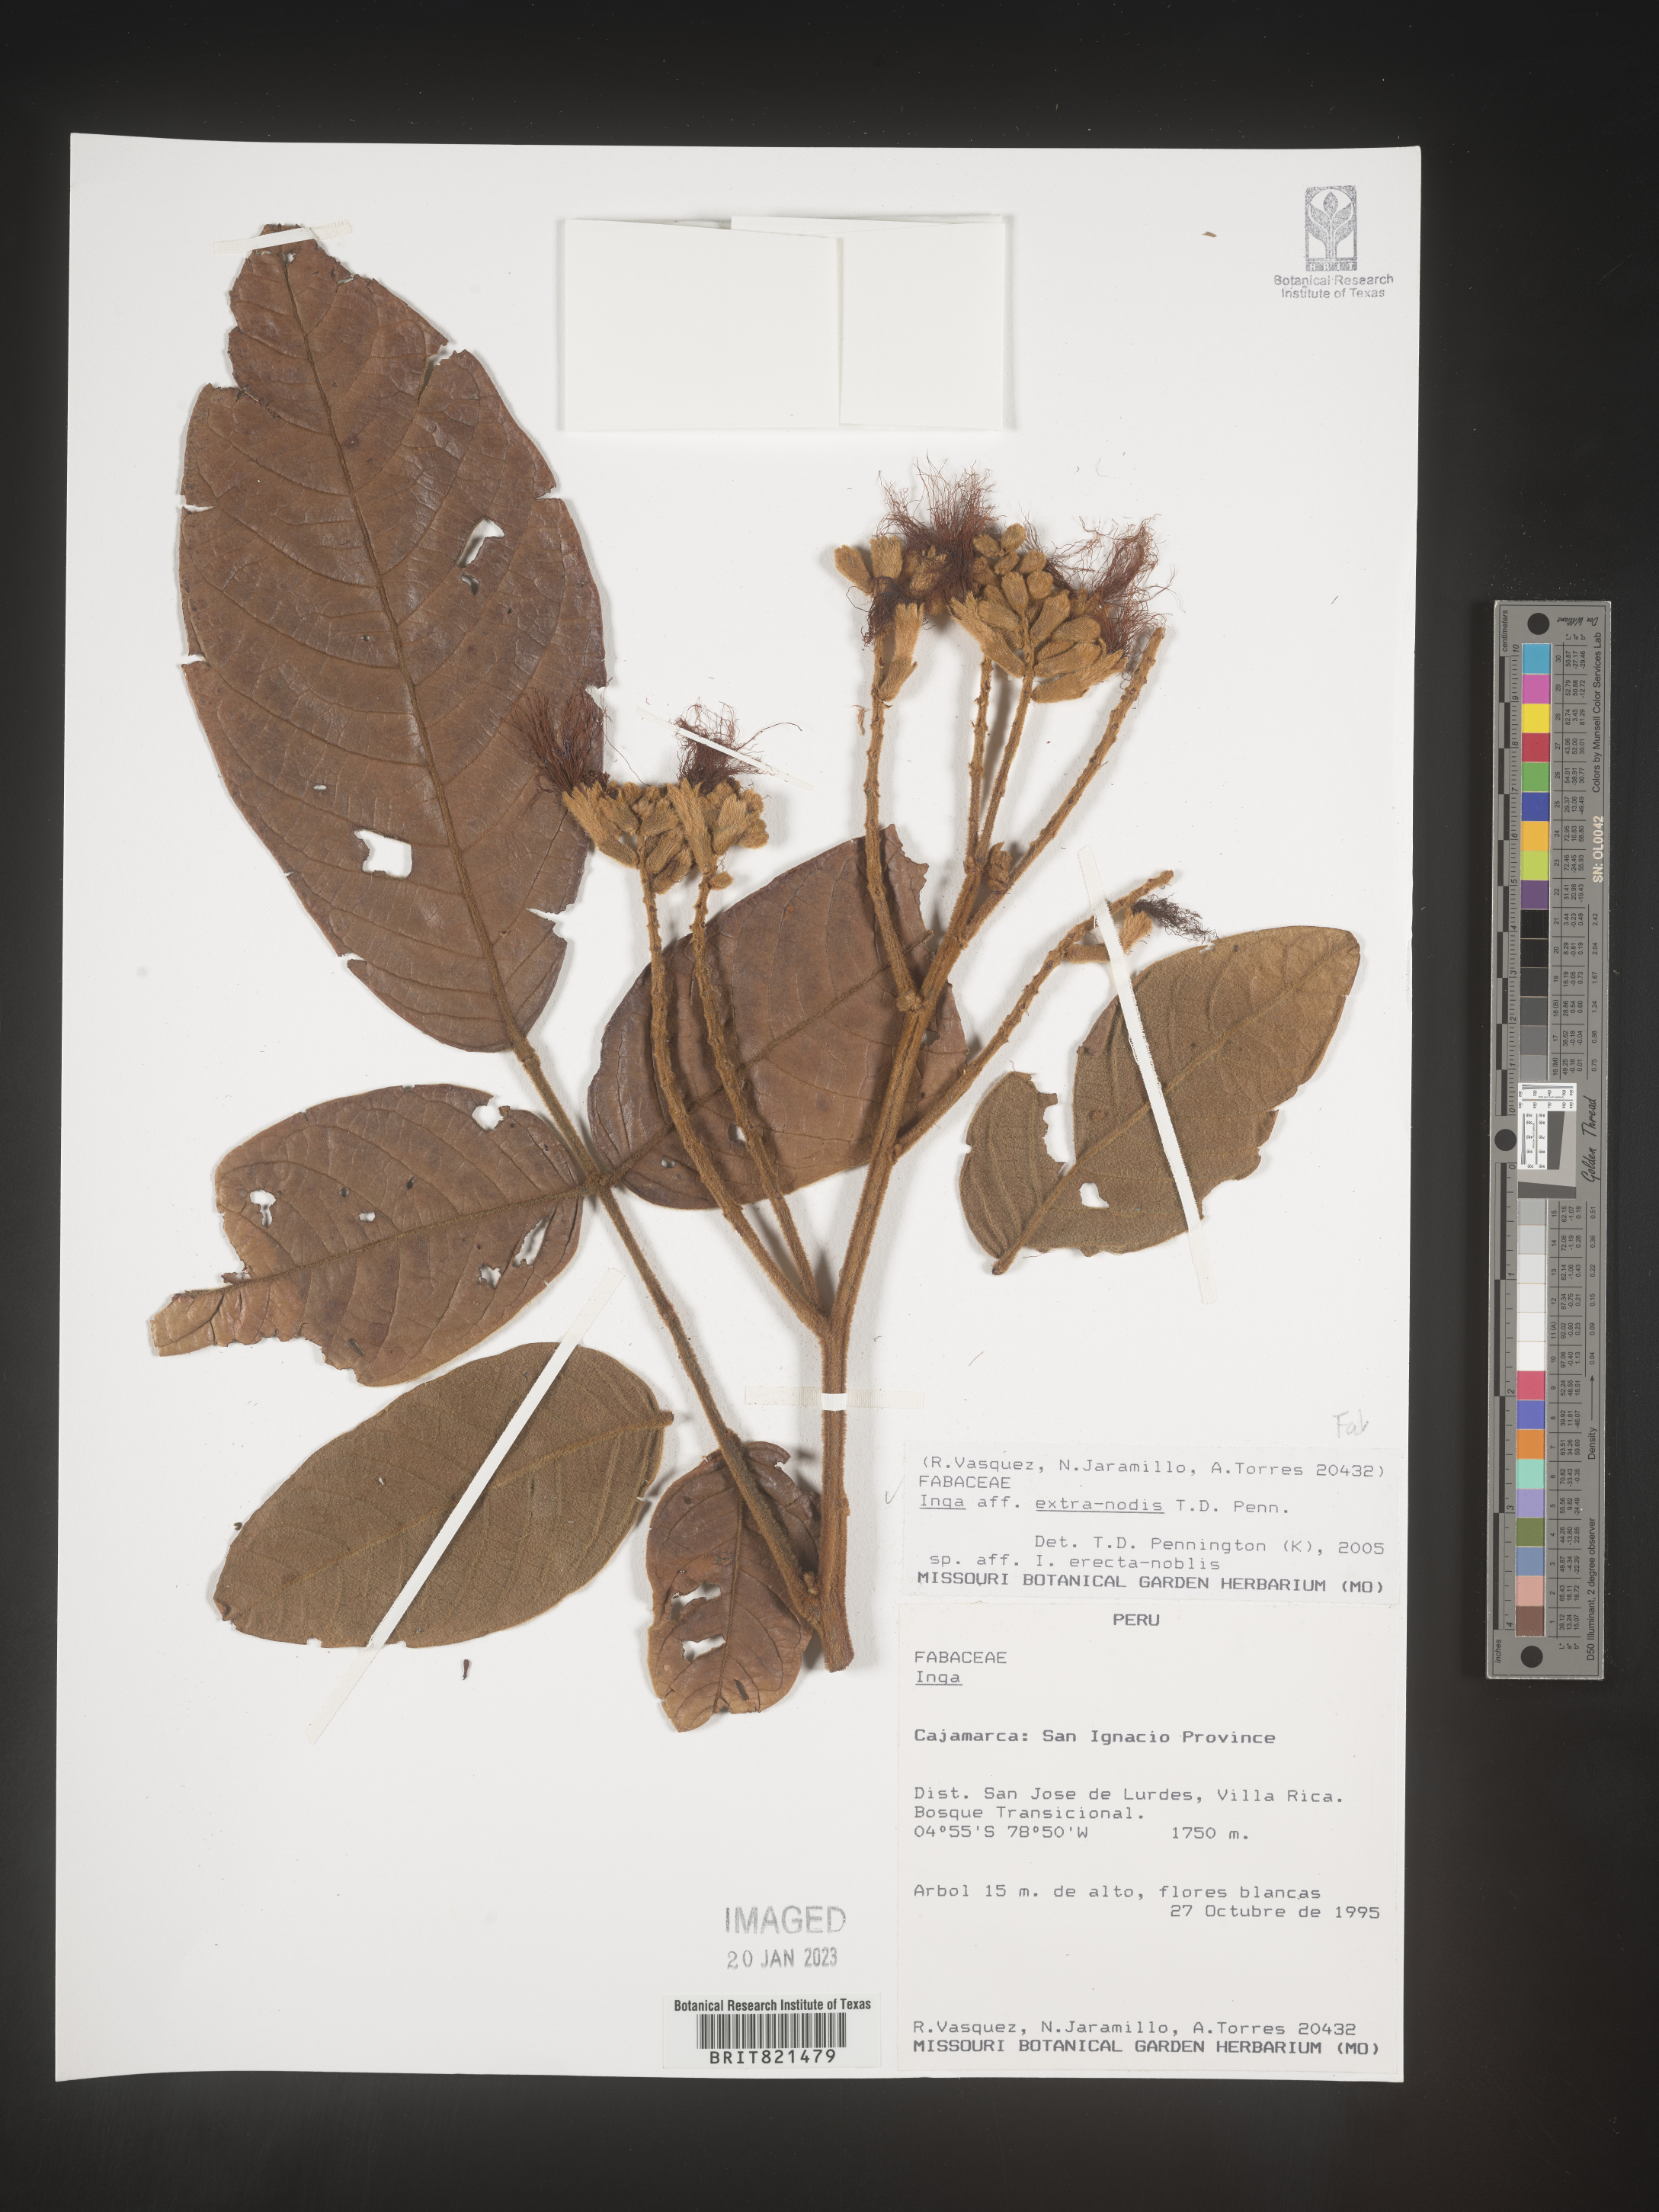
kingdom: Plantae
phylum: Tracheophyta
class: Magnoliopsida
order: Fabales
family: Fabaceae
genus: Inga
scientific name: Inga
